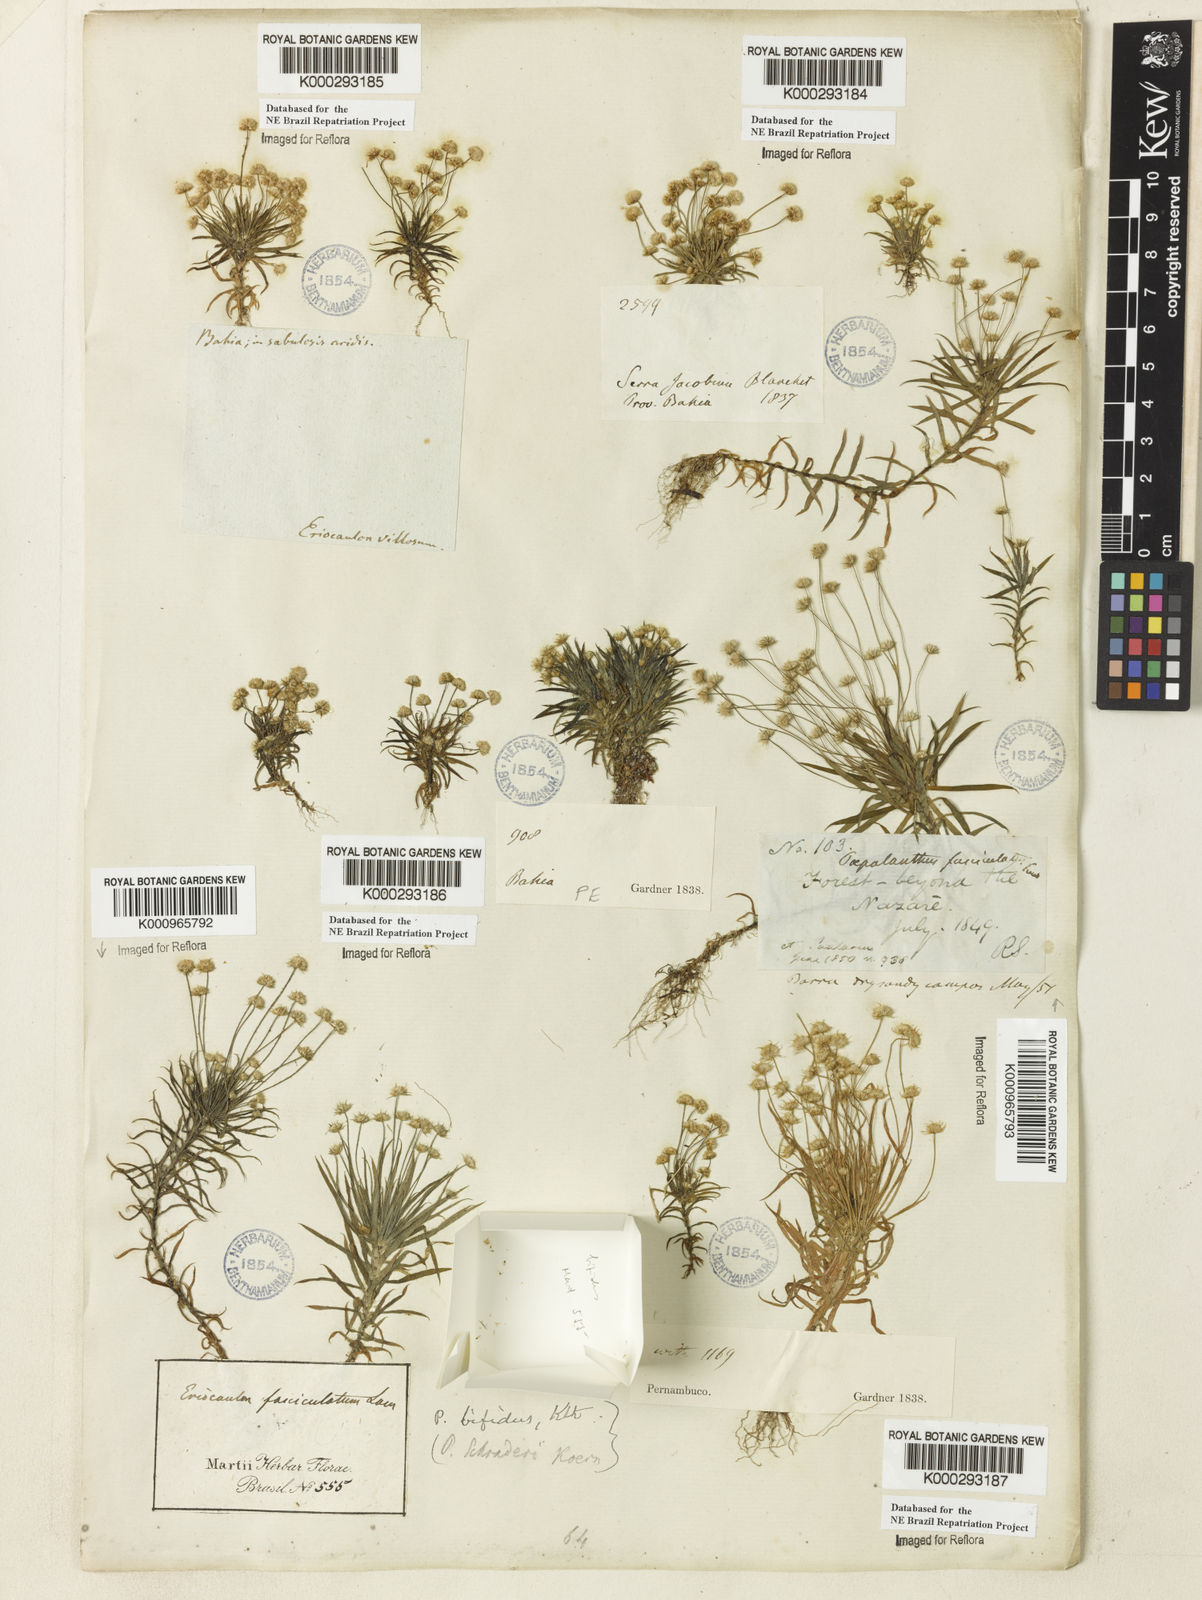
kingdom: Plantae
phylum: Tracheophyta
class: Liliopsida
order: Poales
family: Eriocaulaceae
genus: Paepalanthus
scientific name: Paepalanthus bifidus
